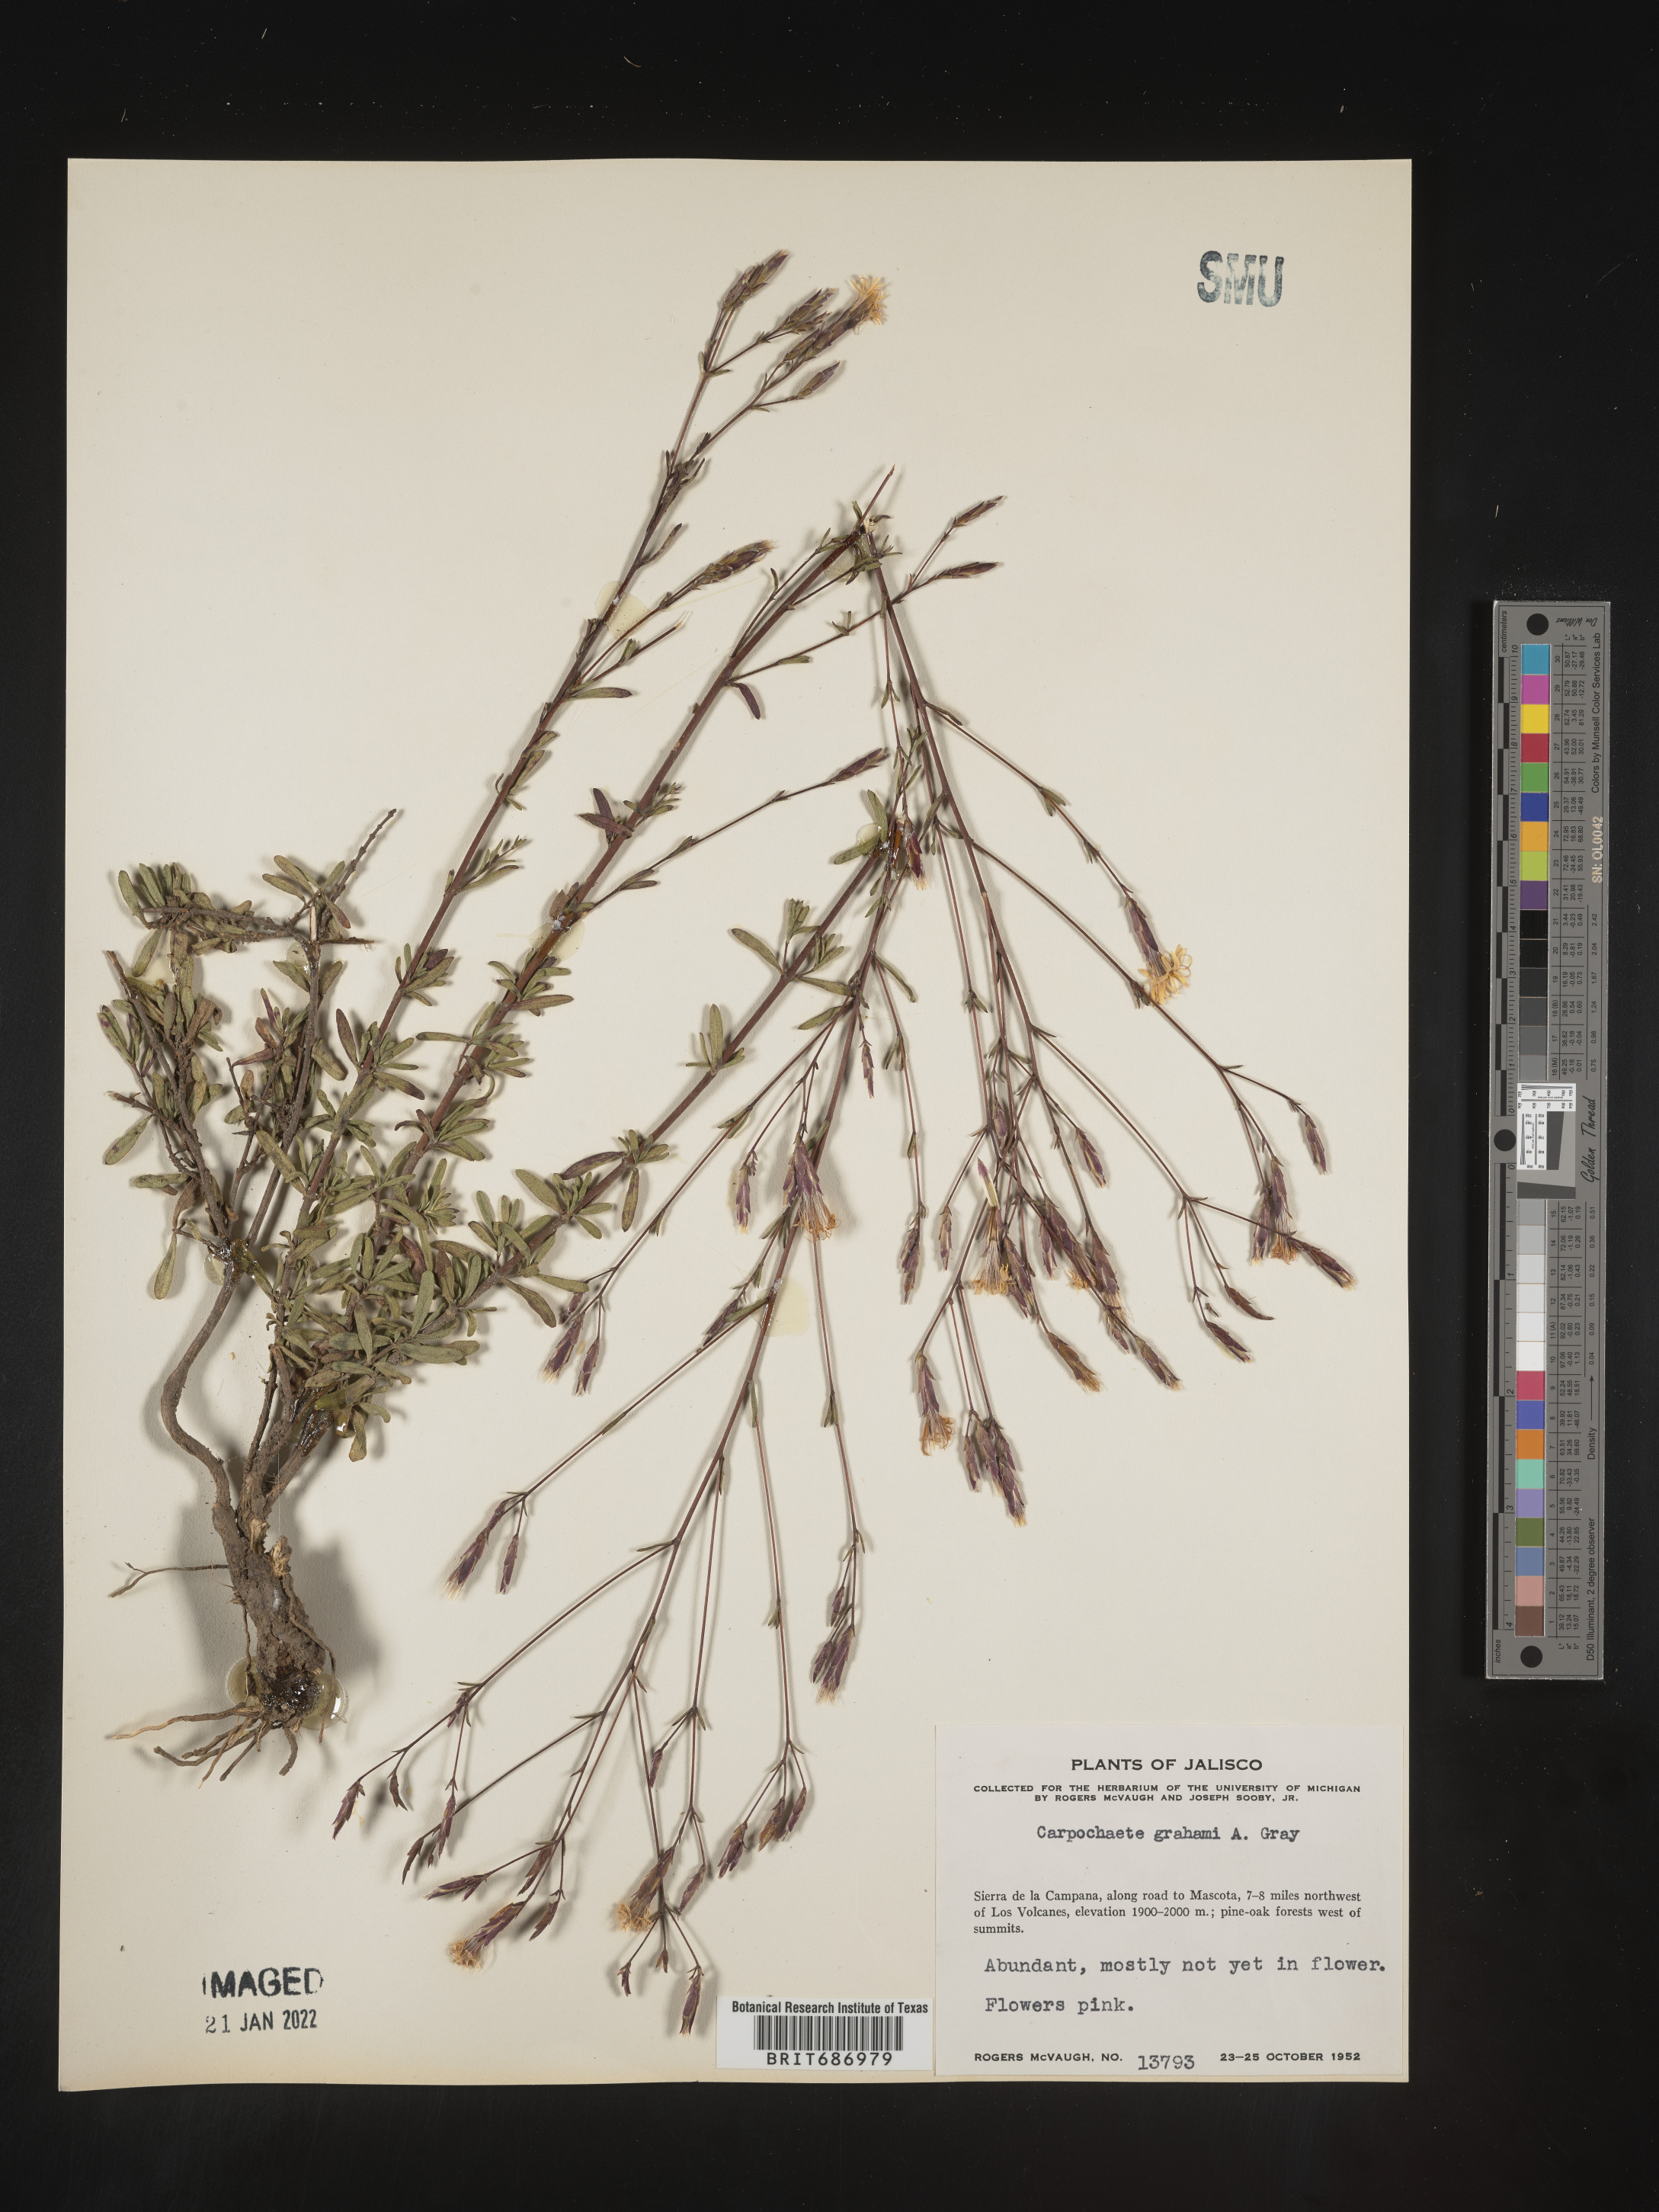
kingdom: Plantae
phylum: Tracheophyta
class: Magnoliopsida
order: Asterales
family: Asteraceae
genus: Carphochaete
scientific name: Carphochaete
